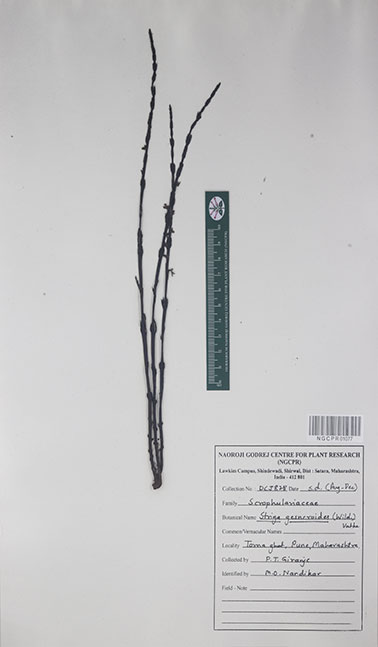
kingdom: Plantae
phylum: Tracheophyta
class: Magnoliopsida
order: Lamiales
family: Orobanchaceae
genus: Striga
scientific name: Striga gesnerioides
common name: Cowpea witchweed
